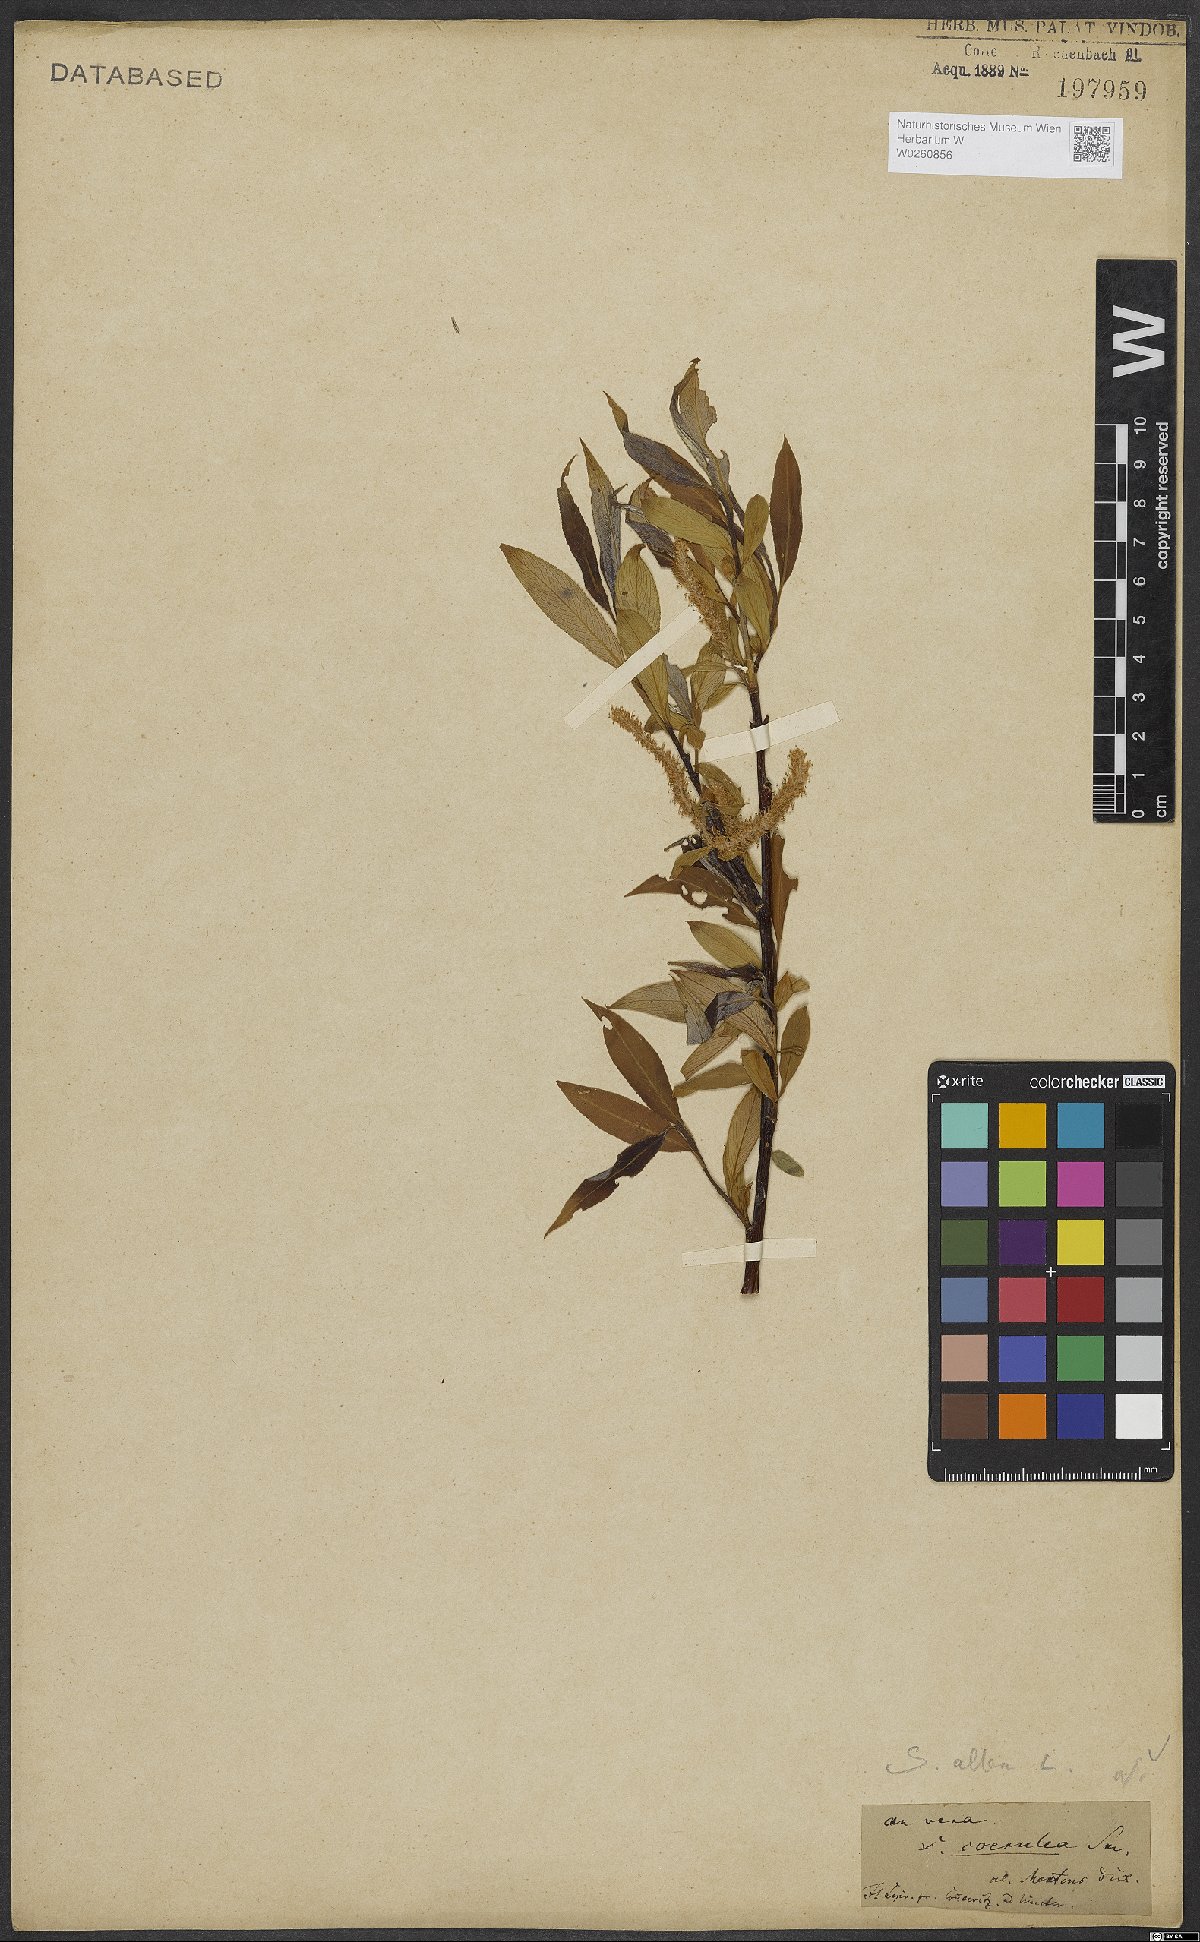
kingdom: Plantae
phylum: Tracheophyta
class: Magnoliopsida
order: Malpighiales
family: Salicaceae
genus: Salix
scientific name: Salix alba
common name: White willow
